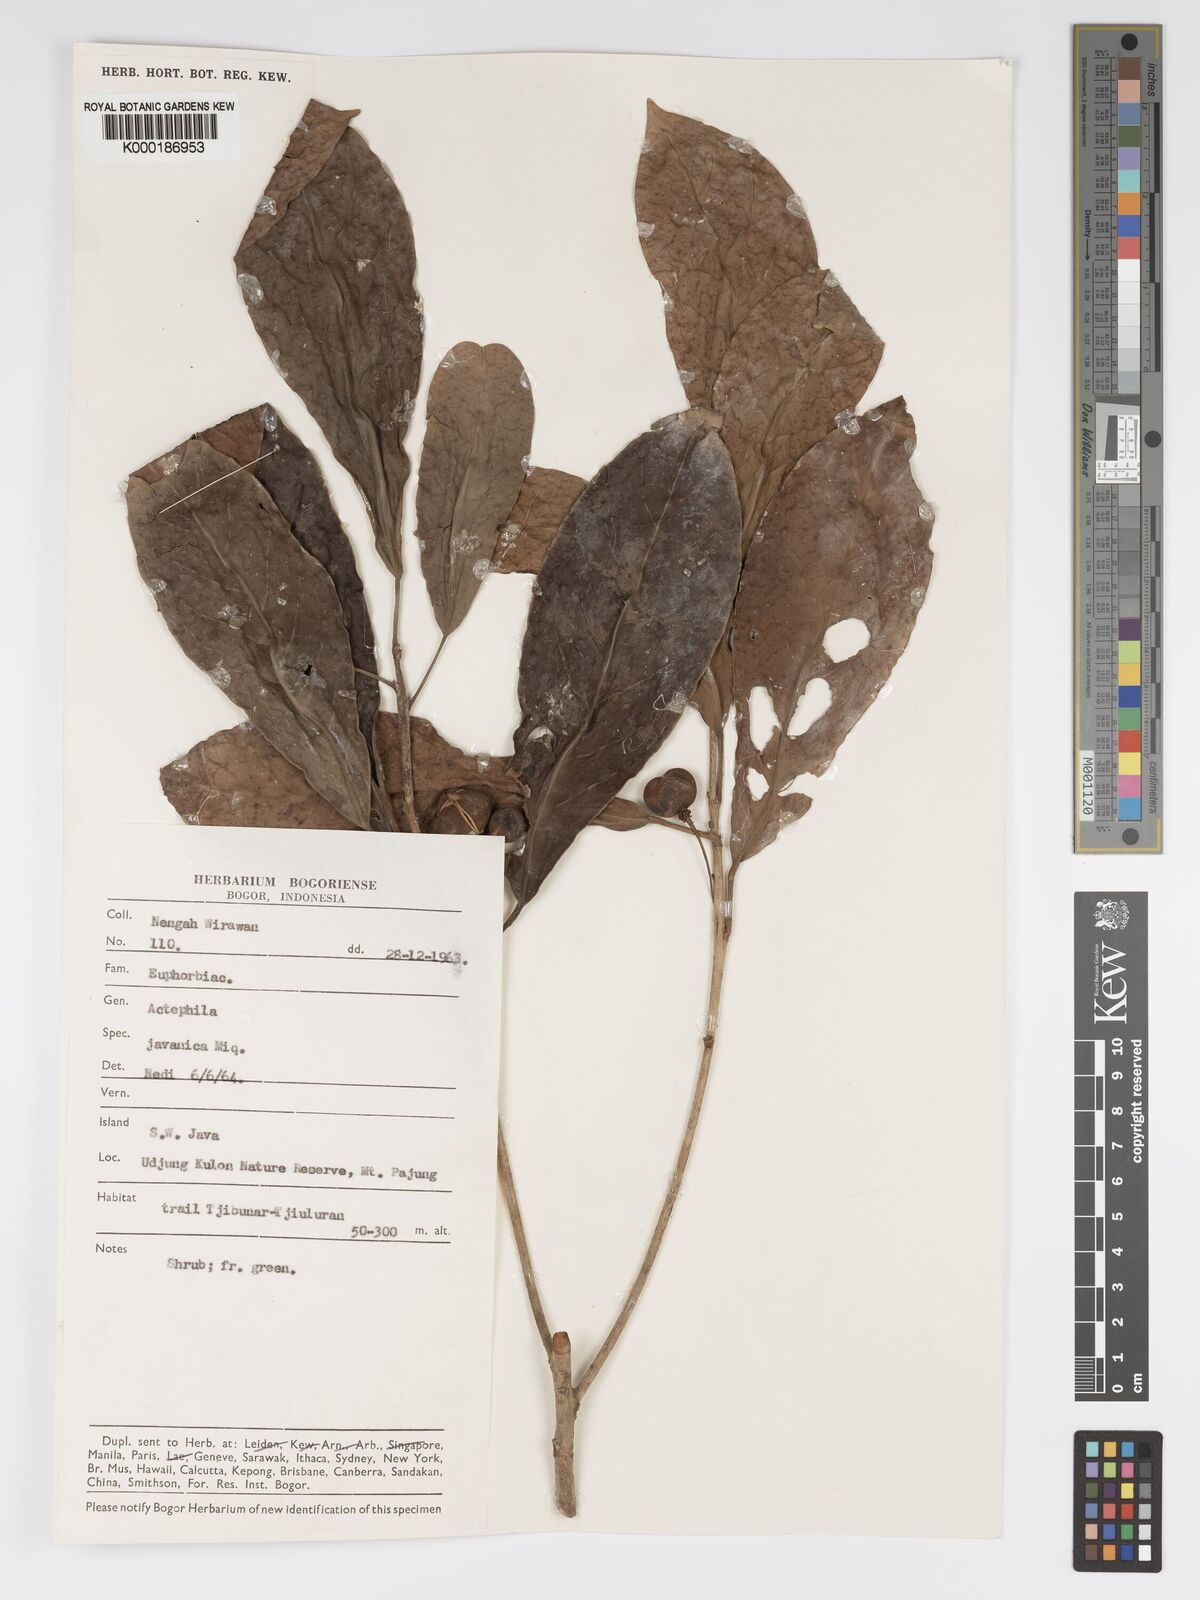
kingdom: Plantae
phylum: Tracheophyta
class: Magnoliopsida
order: Malpighiales
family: Phyllanthaceae
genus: Actephila
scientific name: Actephila
